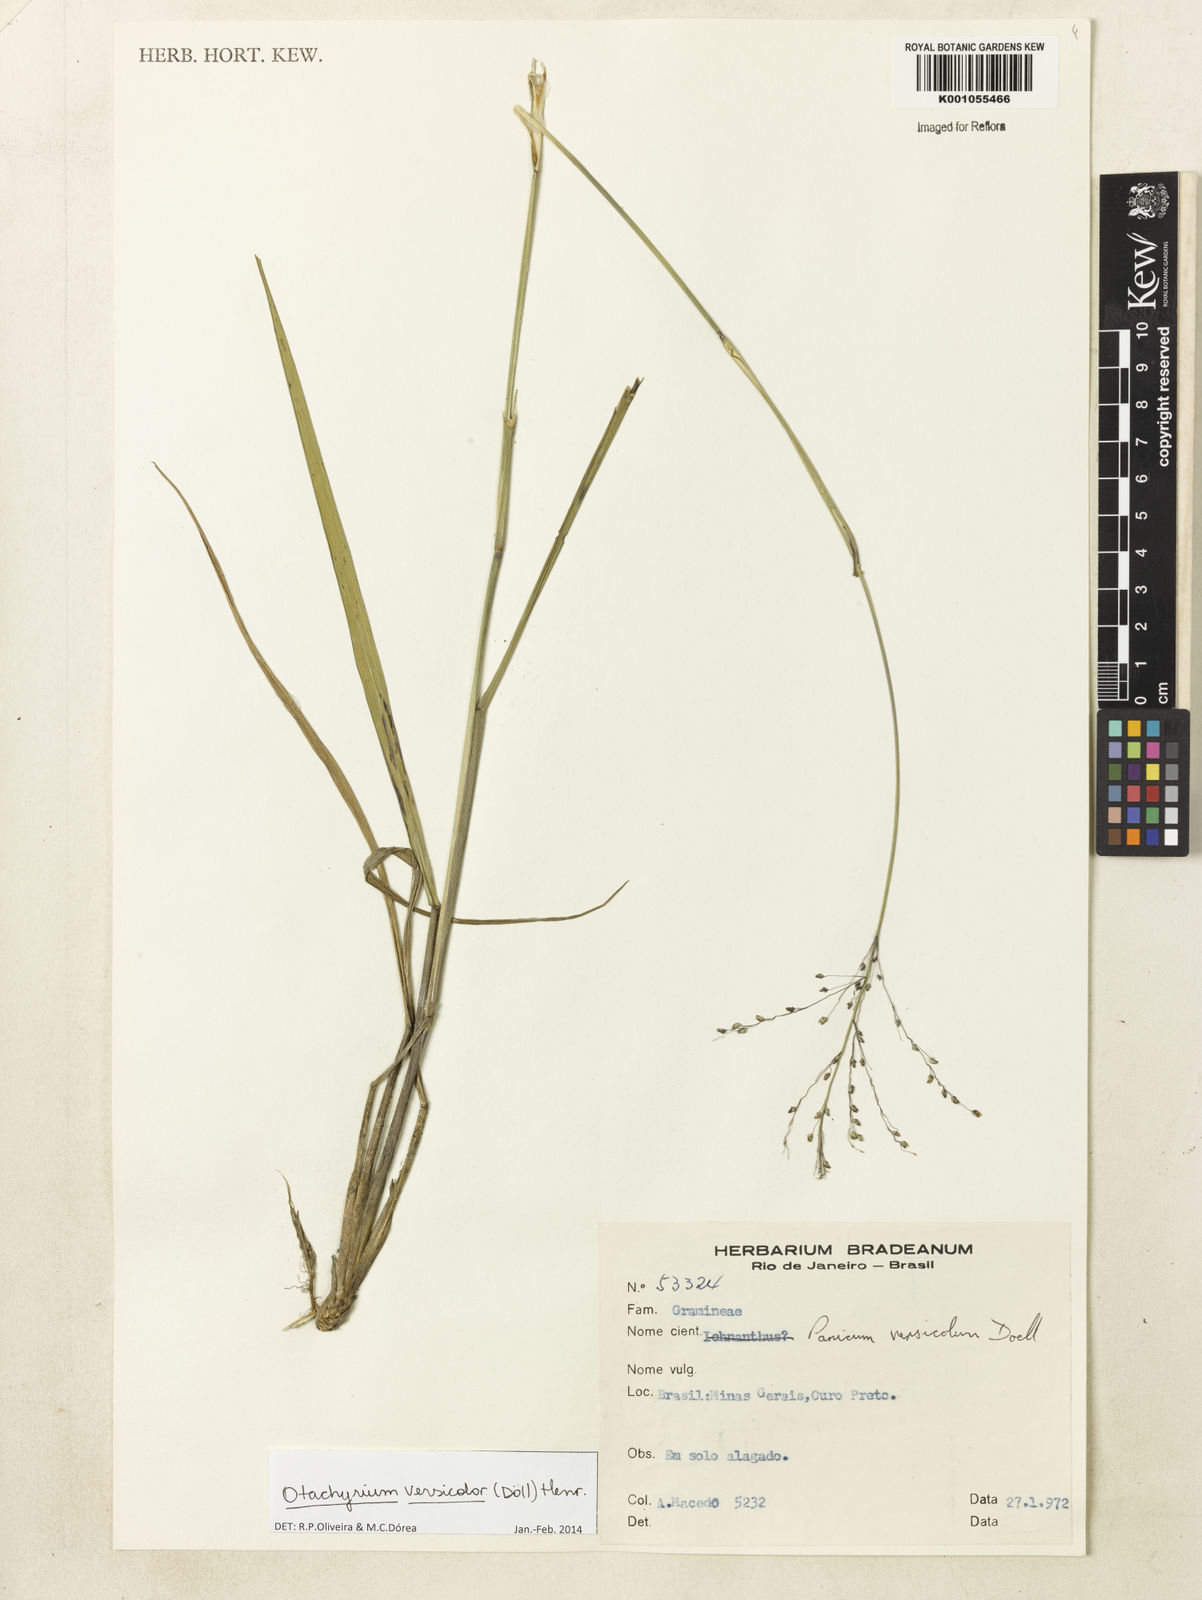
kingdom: Plantae
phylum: Tracheophyta
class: Liliopsida
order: Poales
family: Poaceae
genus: Otachyrium
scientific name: Otachyrium
